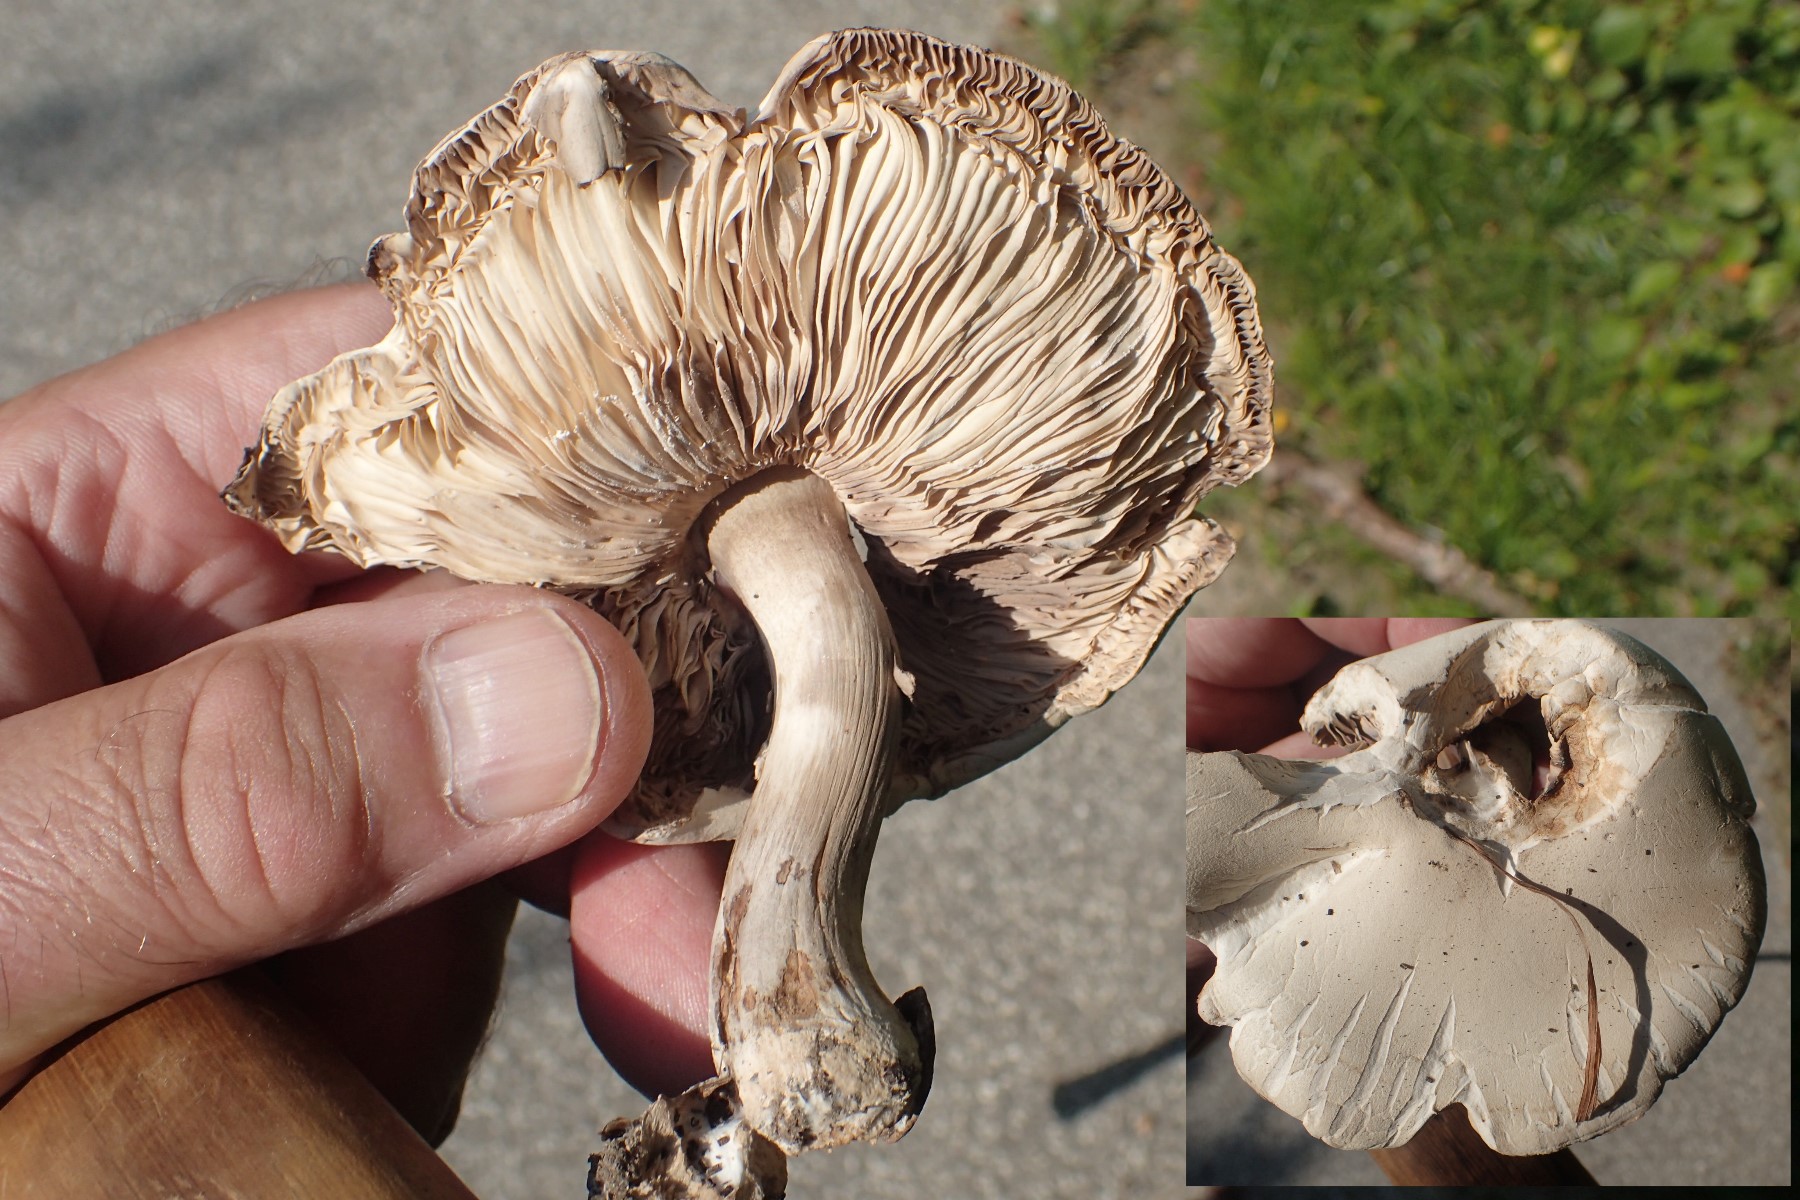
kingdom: Fungi
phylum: Basidiomycota
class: Agaricomycetes
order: Agaricales
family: Agaricaceae
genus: Leucoagaricus
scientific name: Leucoagaricus leucothites
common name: rosabladet silkehat
